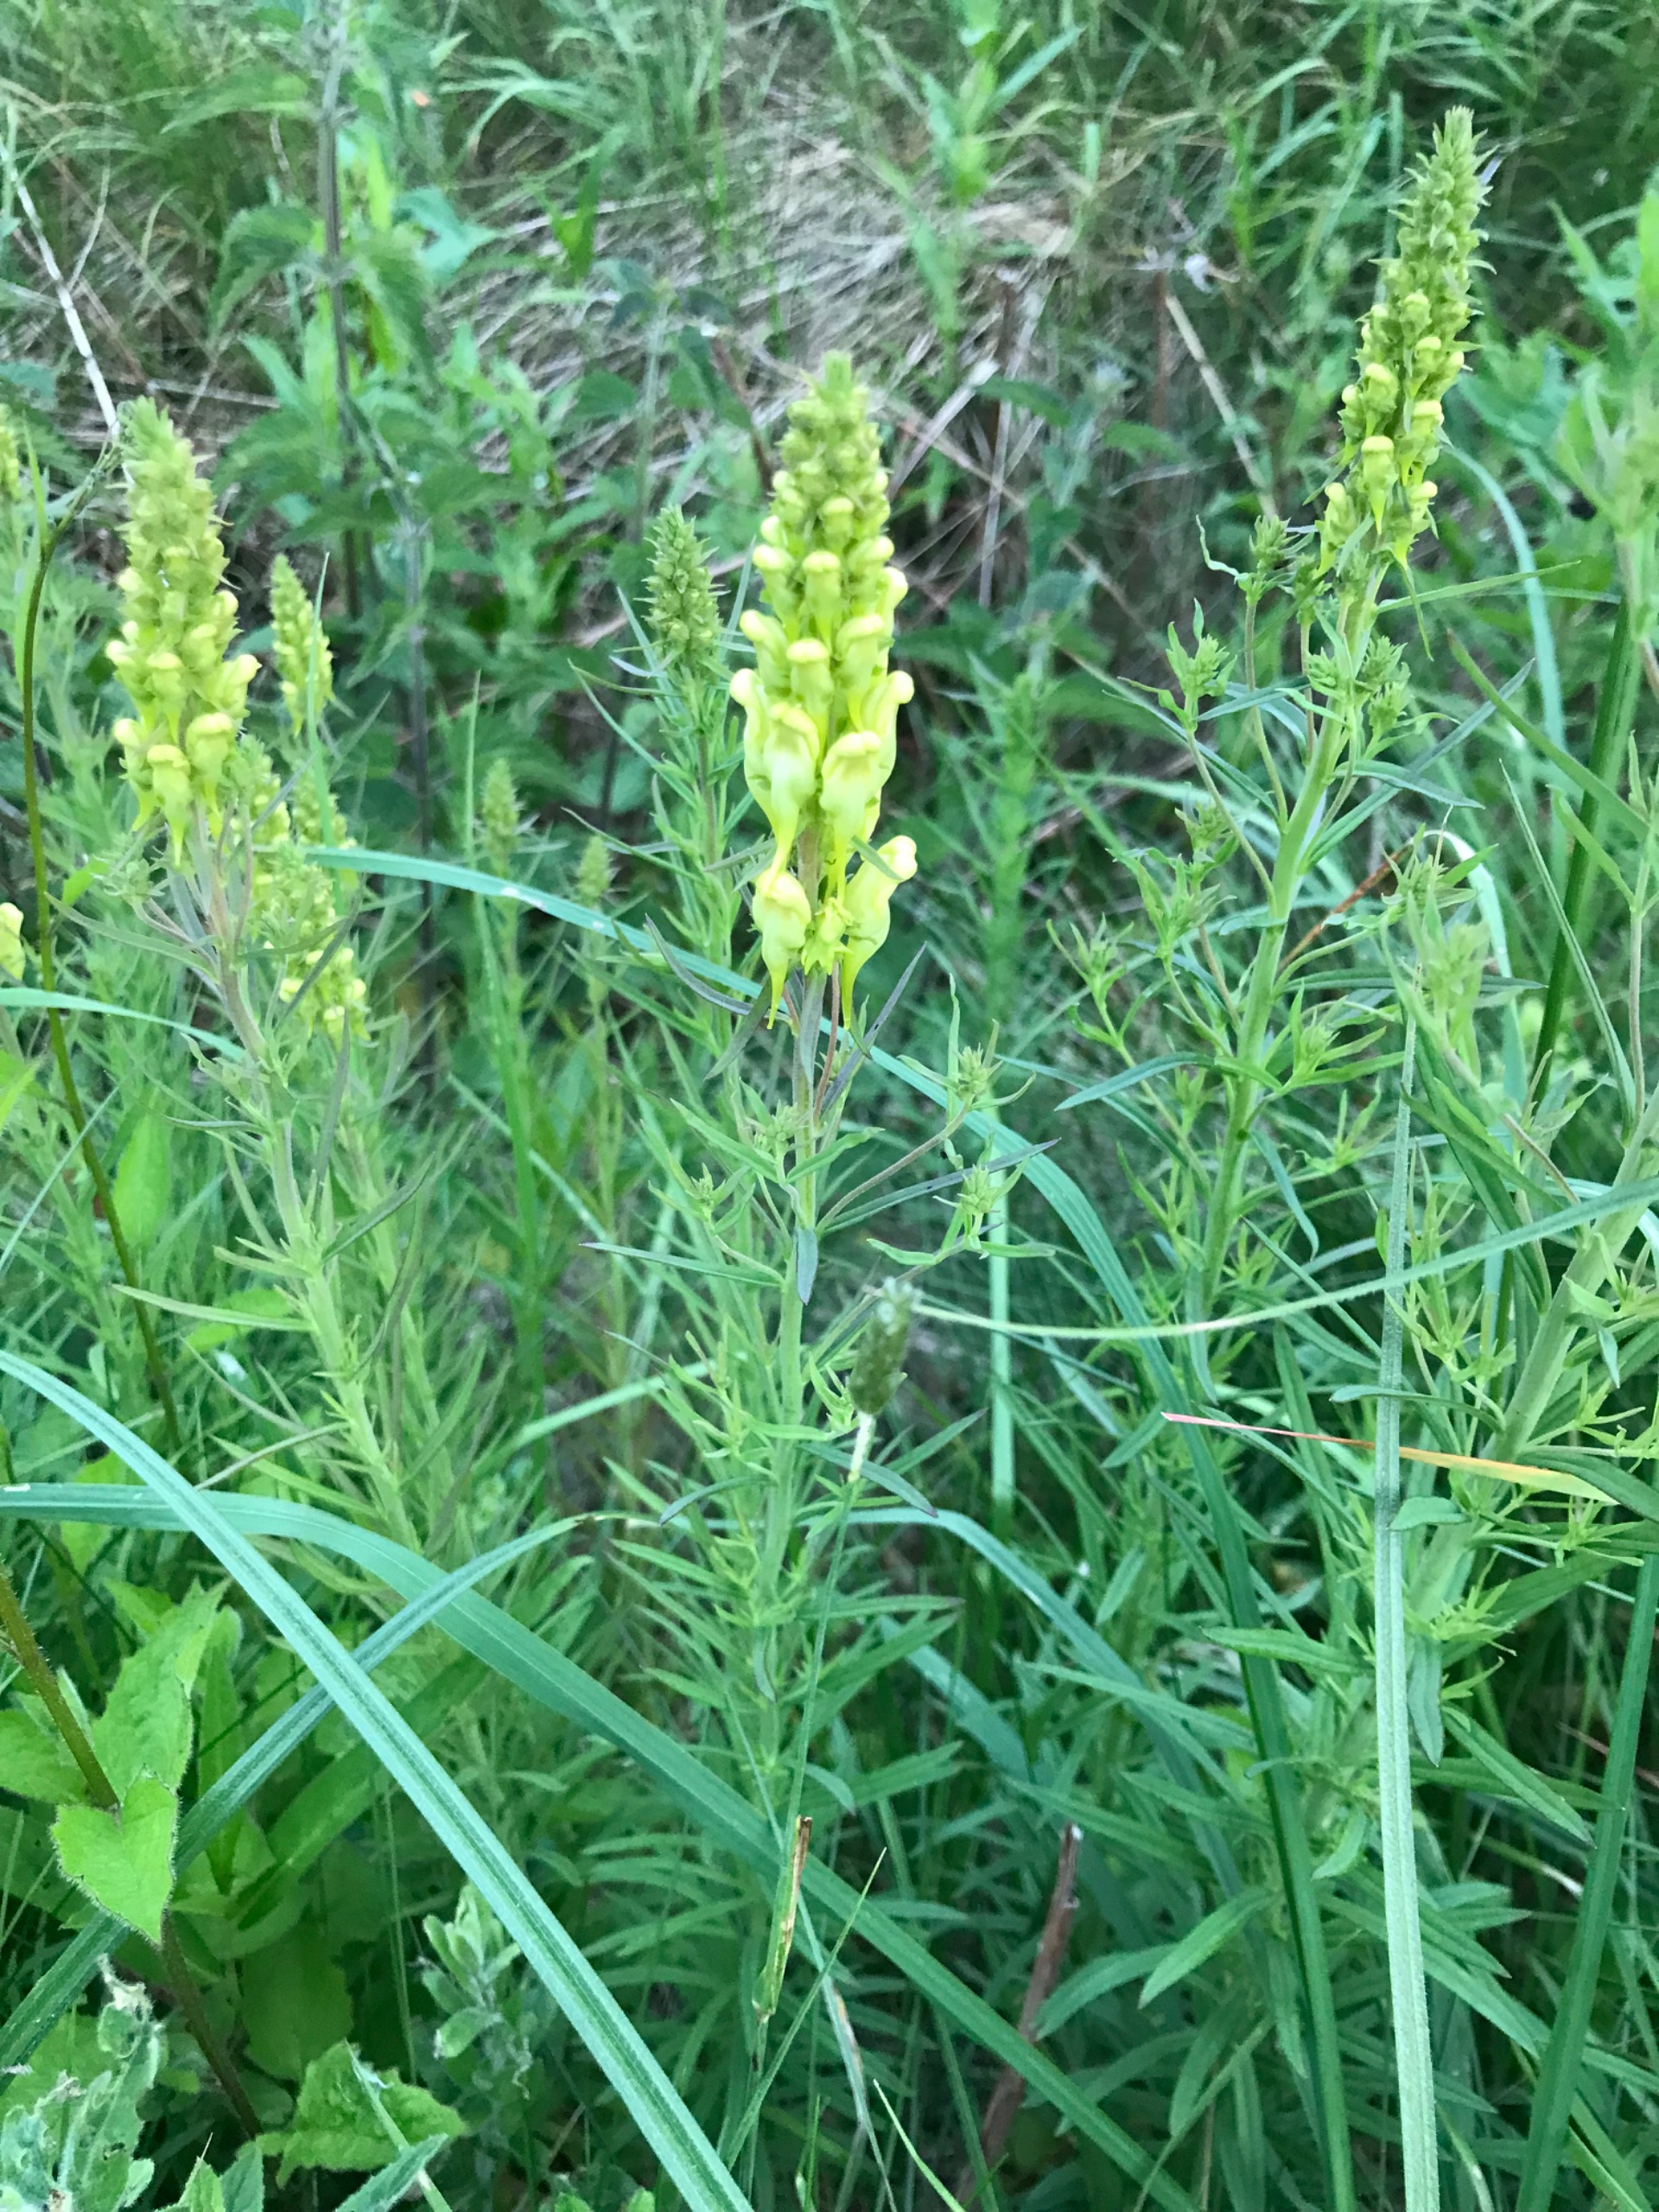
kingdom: Plantae
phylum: Tracheophyta
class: Magnoliopsida
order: Lamiales
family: Plantaginaceae
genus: Linaria
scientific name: Linaria vulgaris
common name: Almindelig torskemund
